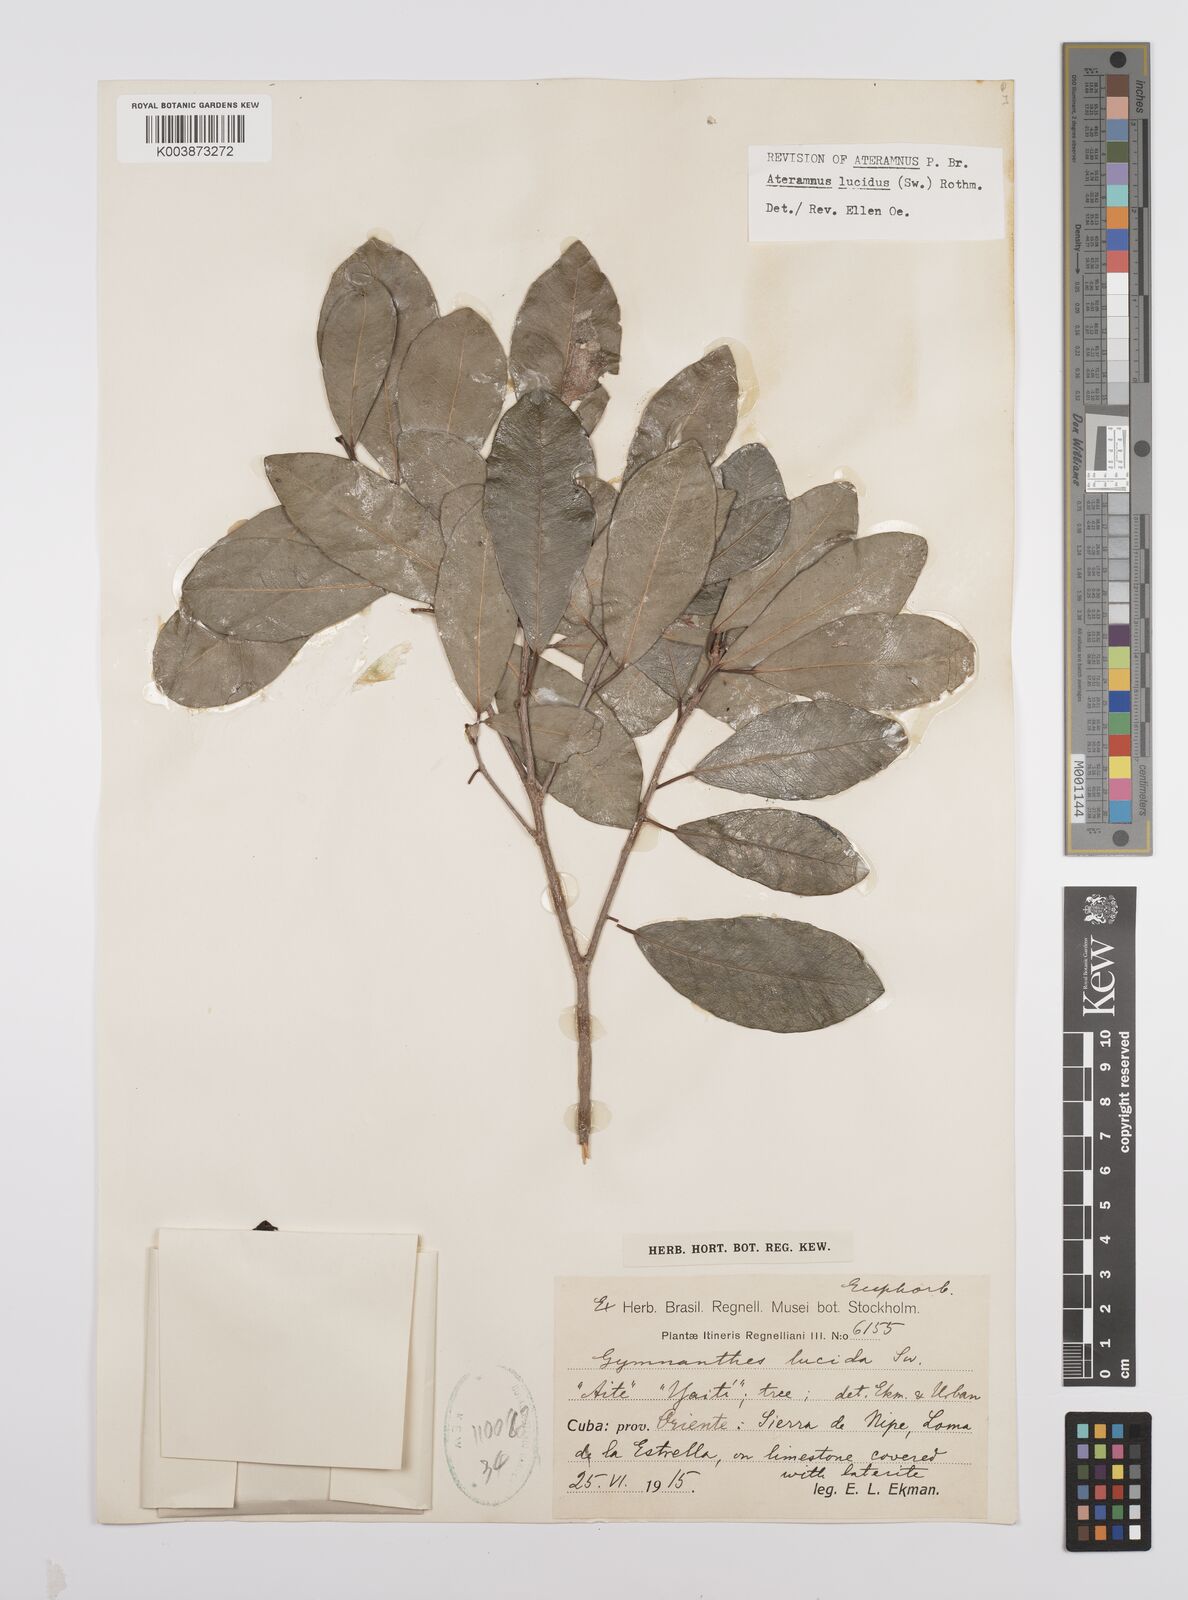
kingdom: Plantae
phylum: Tracheophyta
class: Magnoliopsida
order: Malpighiales
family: Euphorbiaceae
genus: Gymnanthes
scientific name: Gymnanthes lucida
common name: Oysterwood
